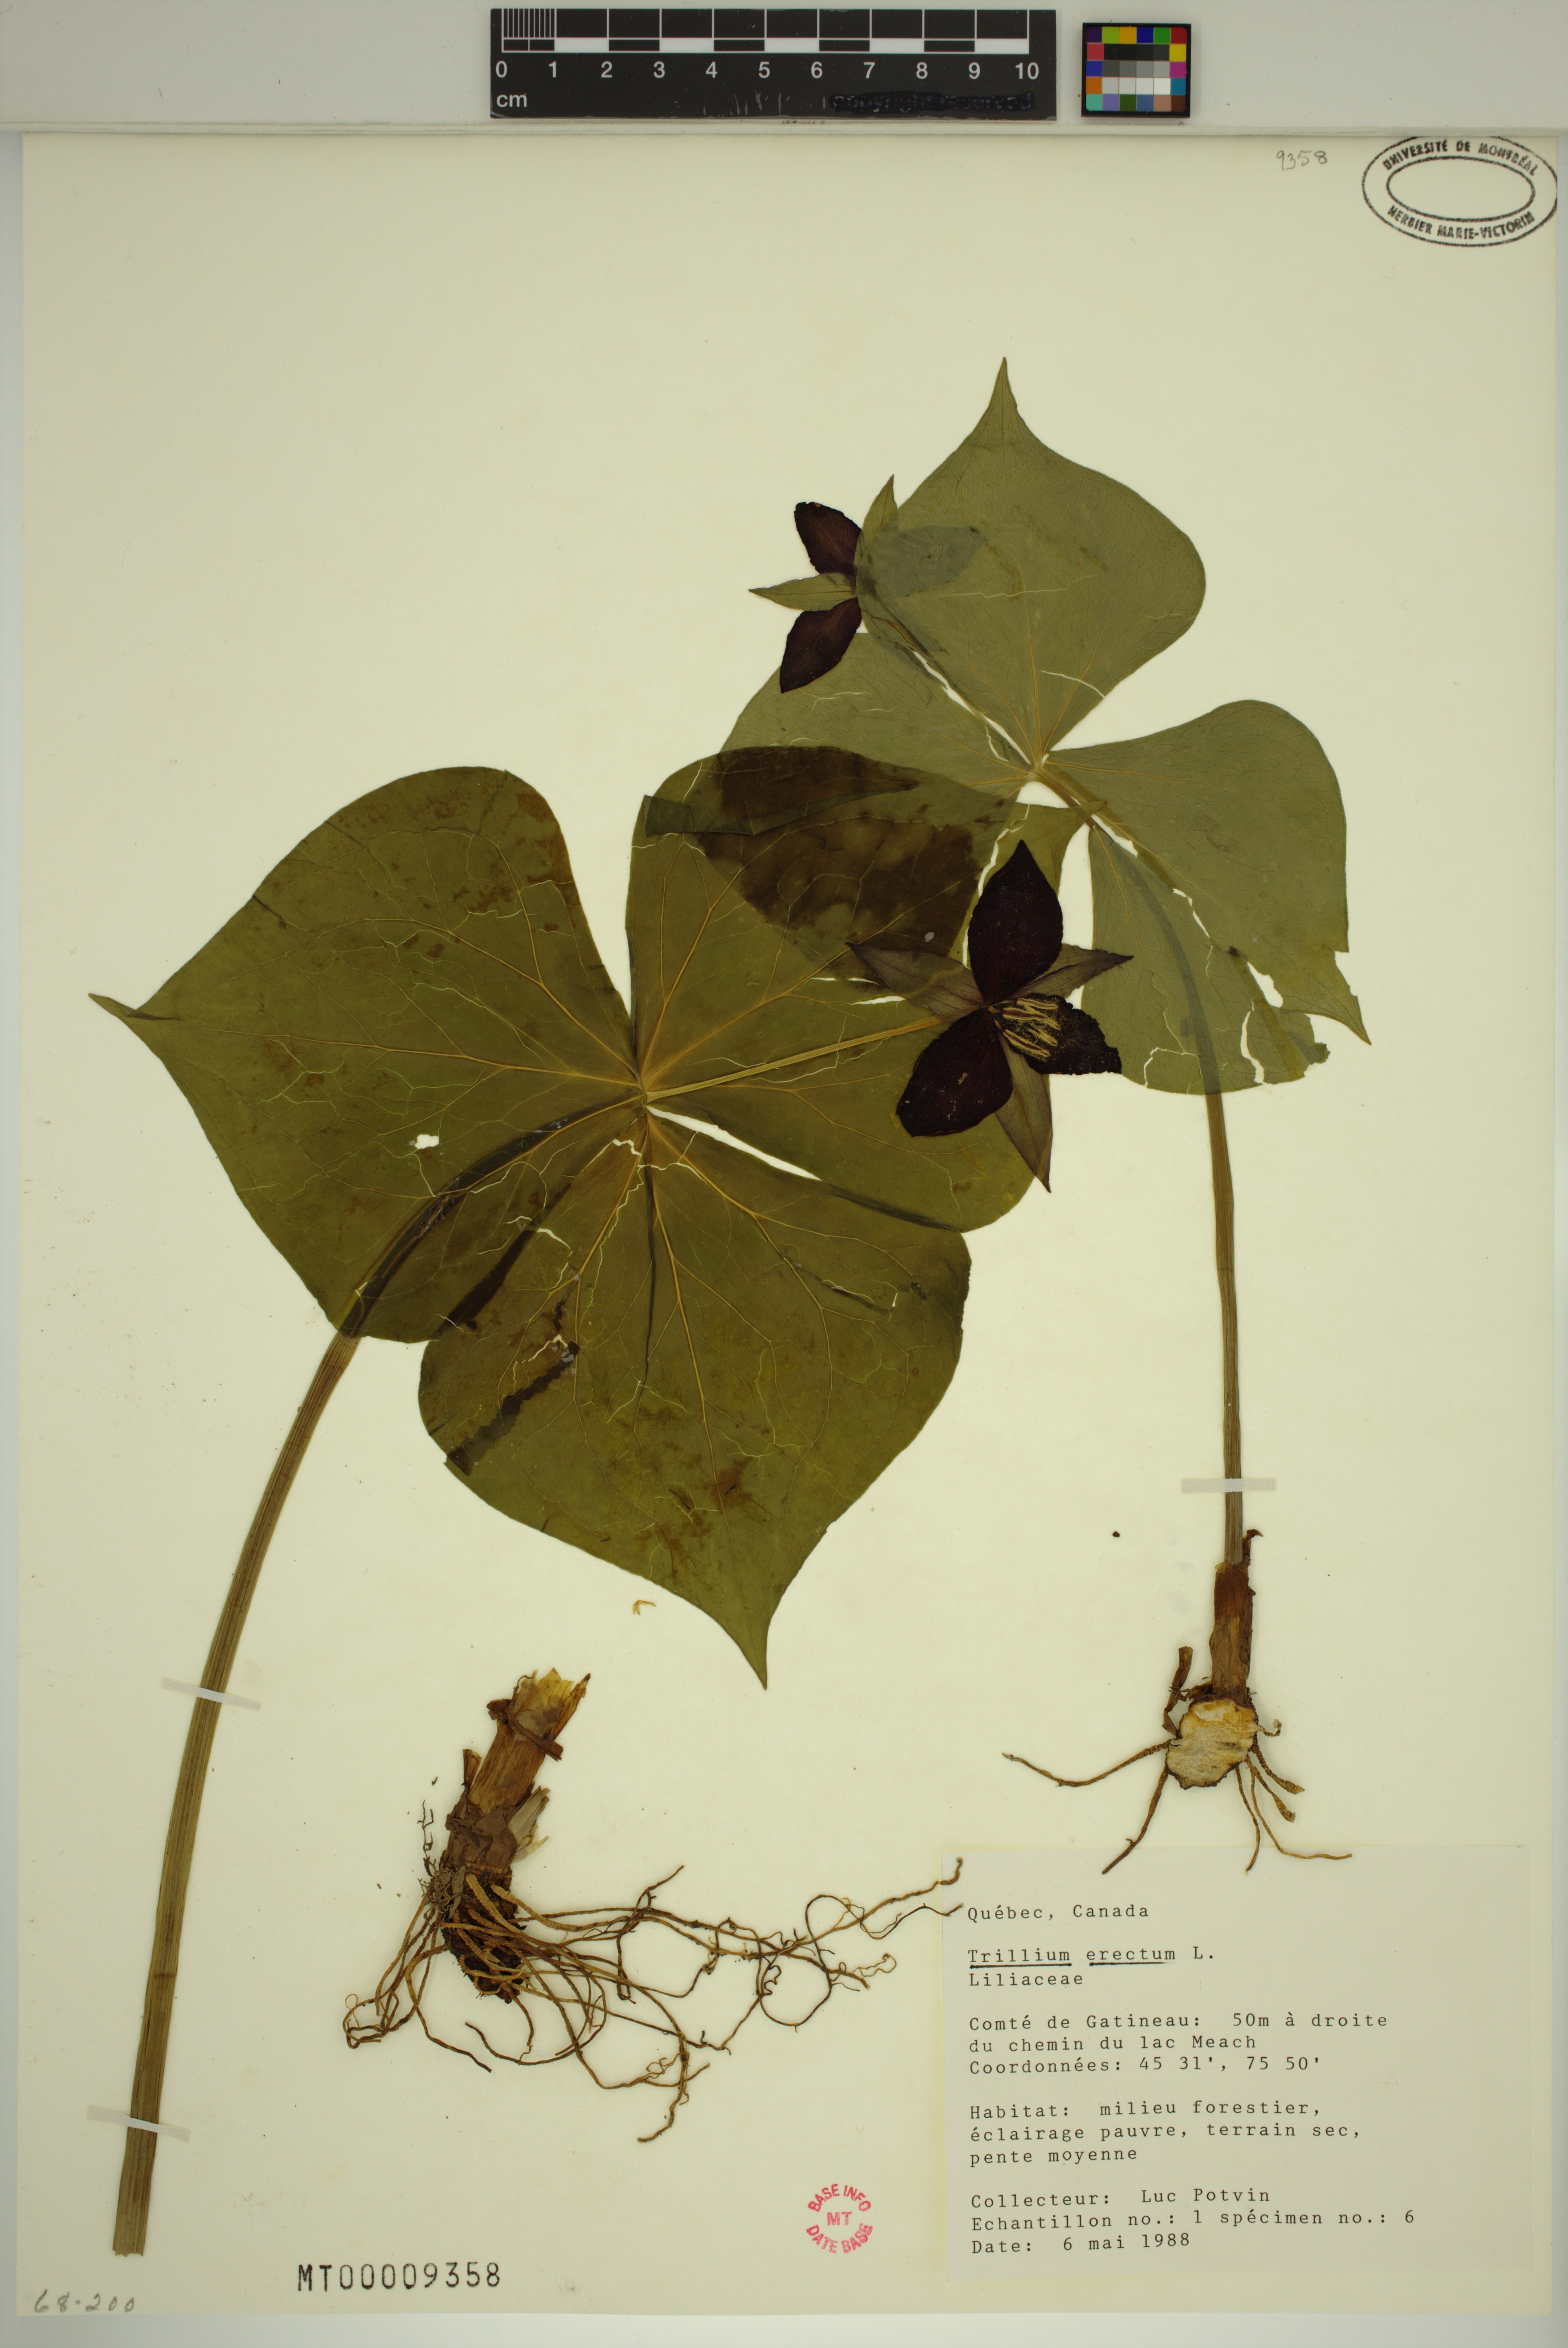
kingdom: Plantae
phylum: Tracheophyta
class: Liliopsida
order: Liliales
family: Melanthiaceae
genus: Trillium
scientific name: Trillium erectum
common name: Purple trillium
